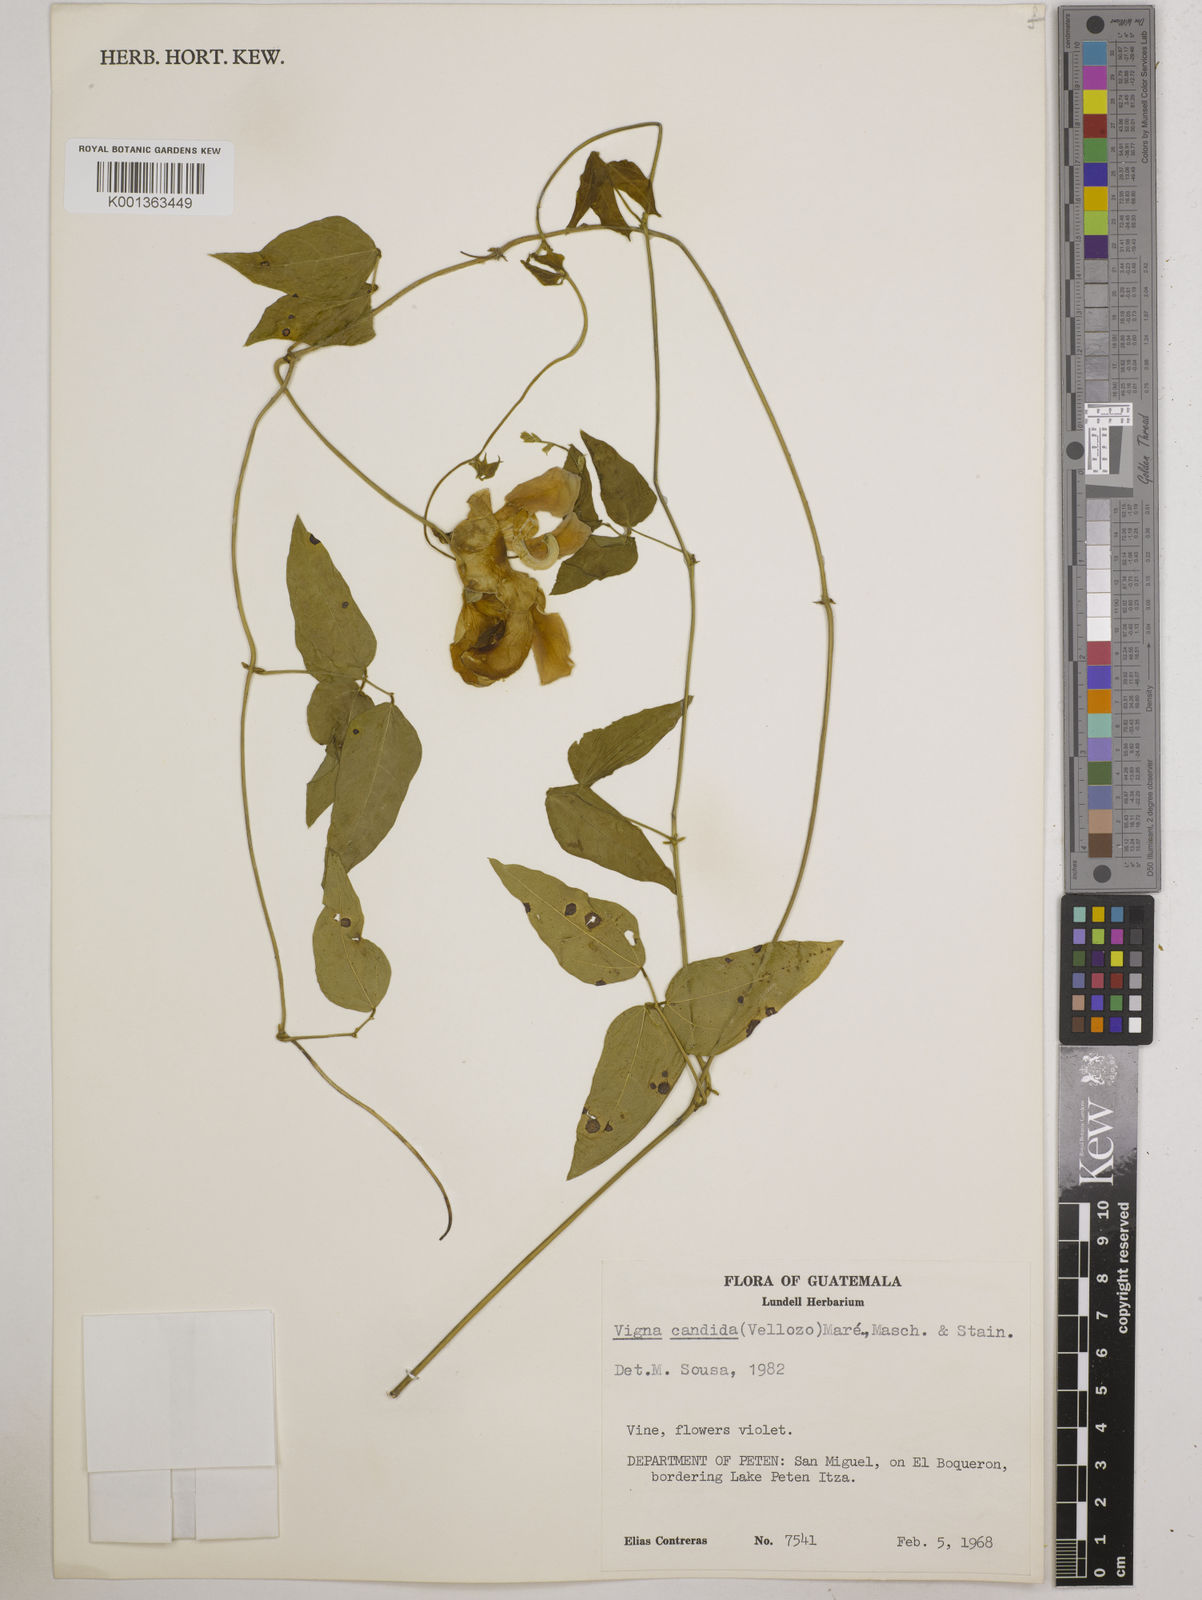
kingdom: Plantae
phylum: Tracheophyta
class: Magnoliopsida
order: Fabales
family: Fabaceae
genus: Vigna
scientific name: Vigna
